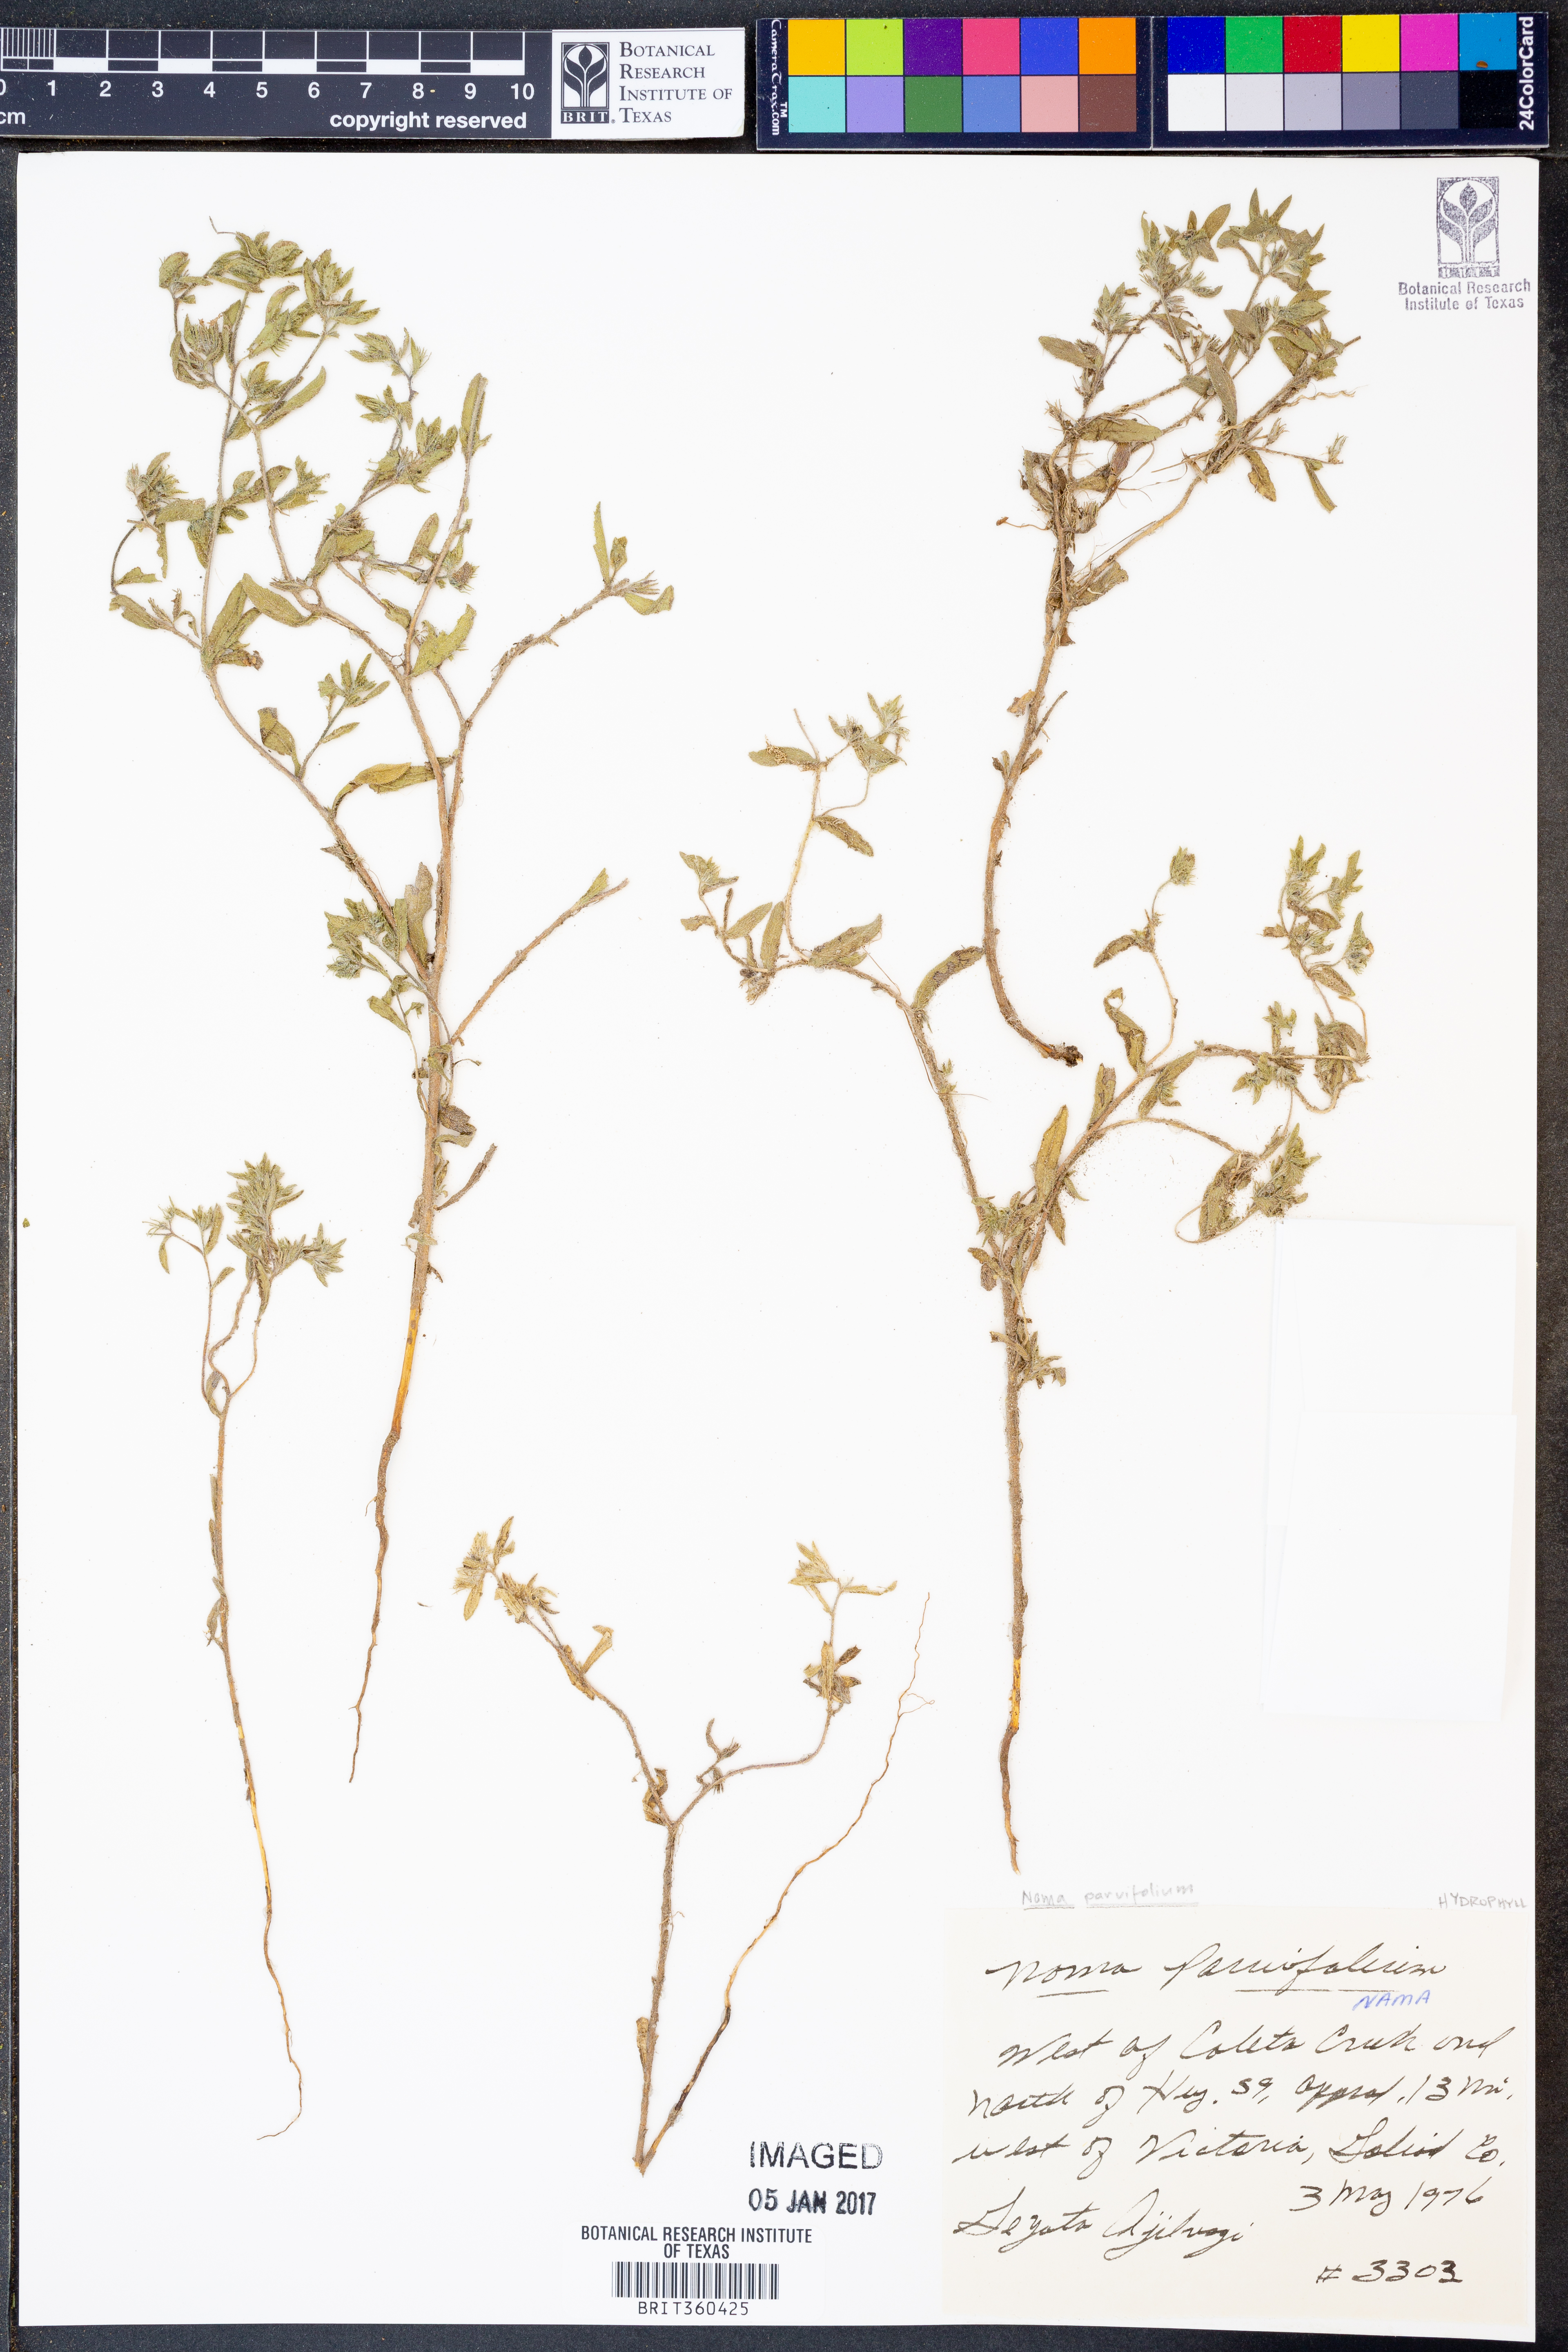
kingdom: Plantae
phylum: Tracheophyta
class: Magnoliopsida
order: Boraginales
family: Namaceae
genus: Nama
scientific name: Nama parvifolia
